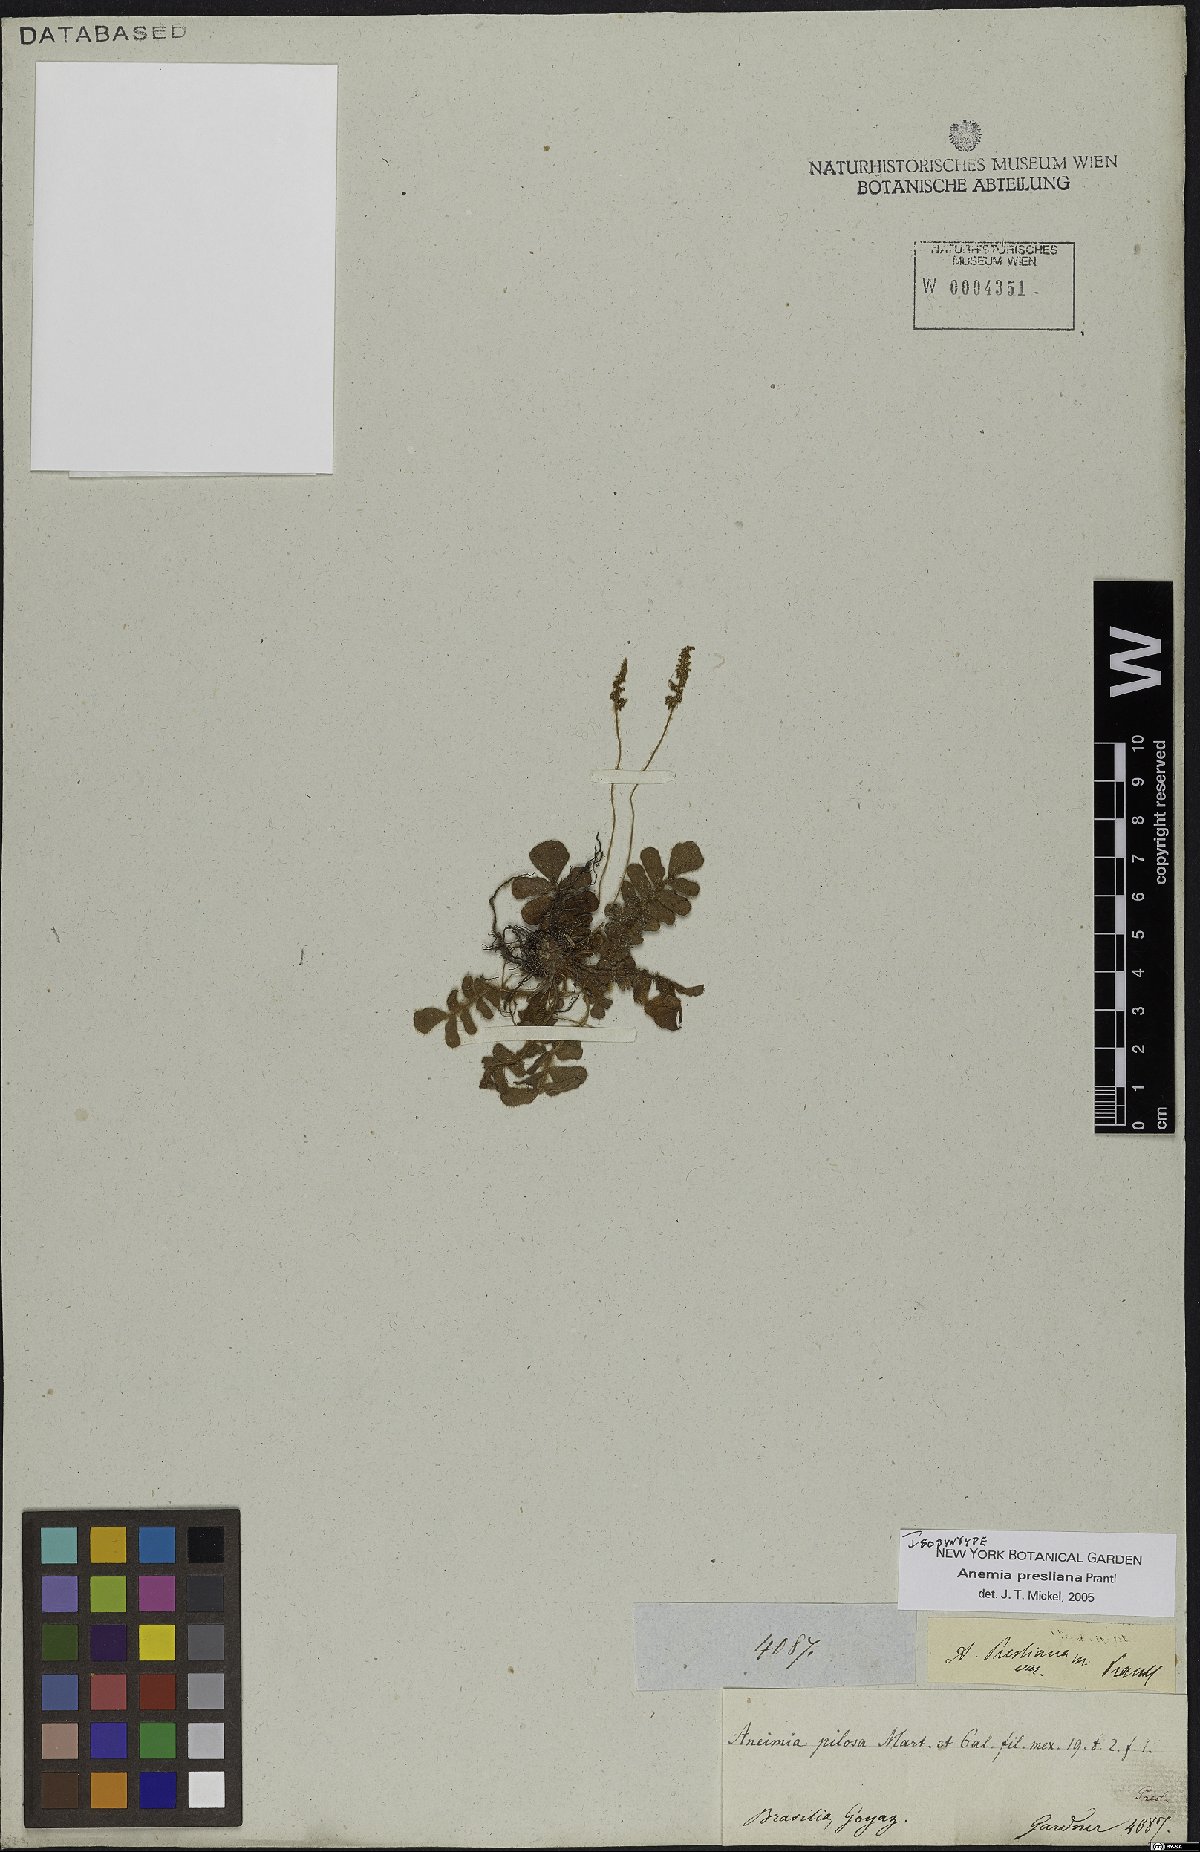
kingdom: Plantae
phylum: Tracheophyta
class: Polypodiopsida
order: Schizaeales
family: Anemiaceae
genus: Anemia
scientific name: Anemia presliana
